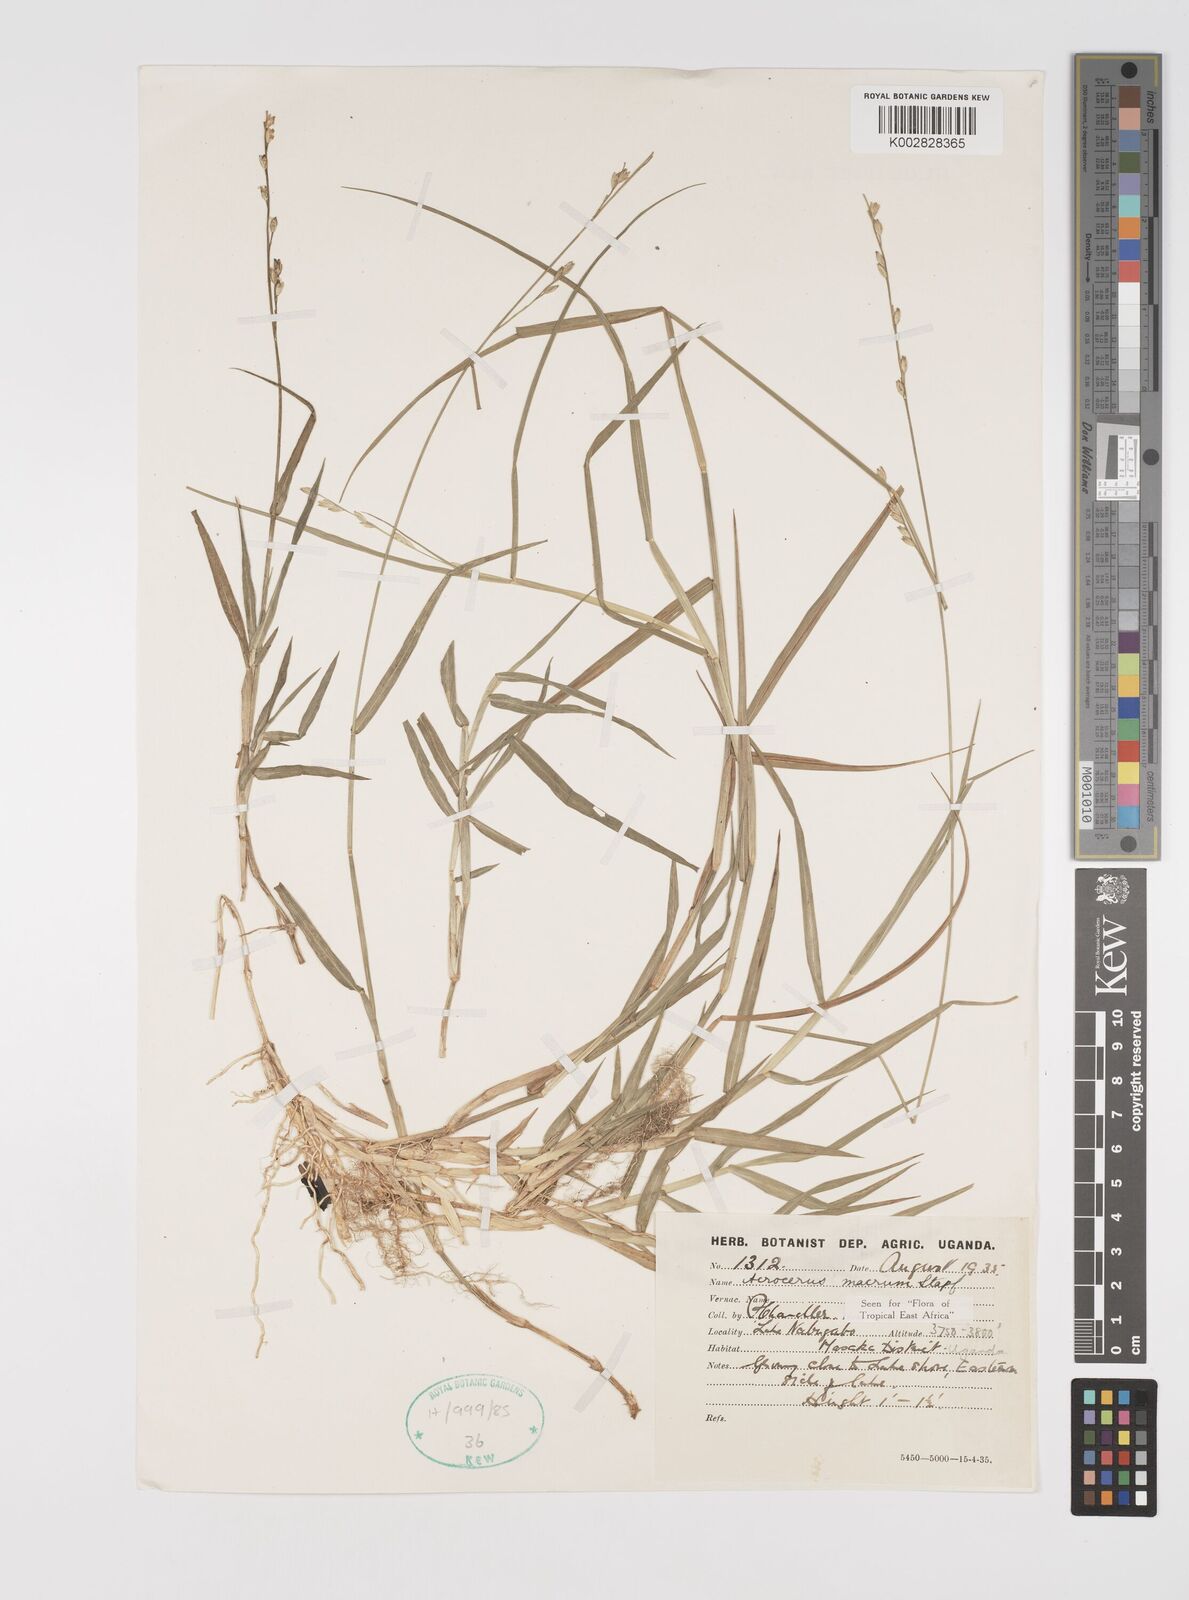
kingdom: Plantae
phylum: Tracheophyta
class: Liliopsida
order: Poales
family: Poaceae
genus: Acroceras
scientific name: Acroceras macrum
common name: Nyl grass
